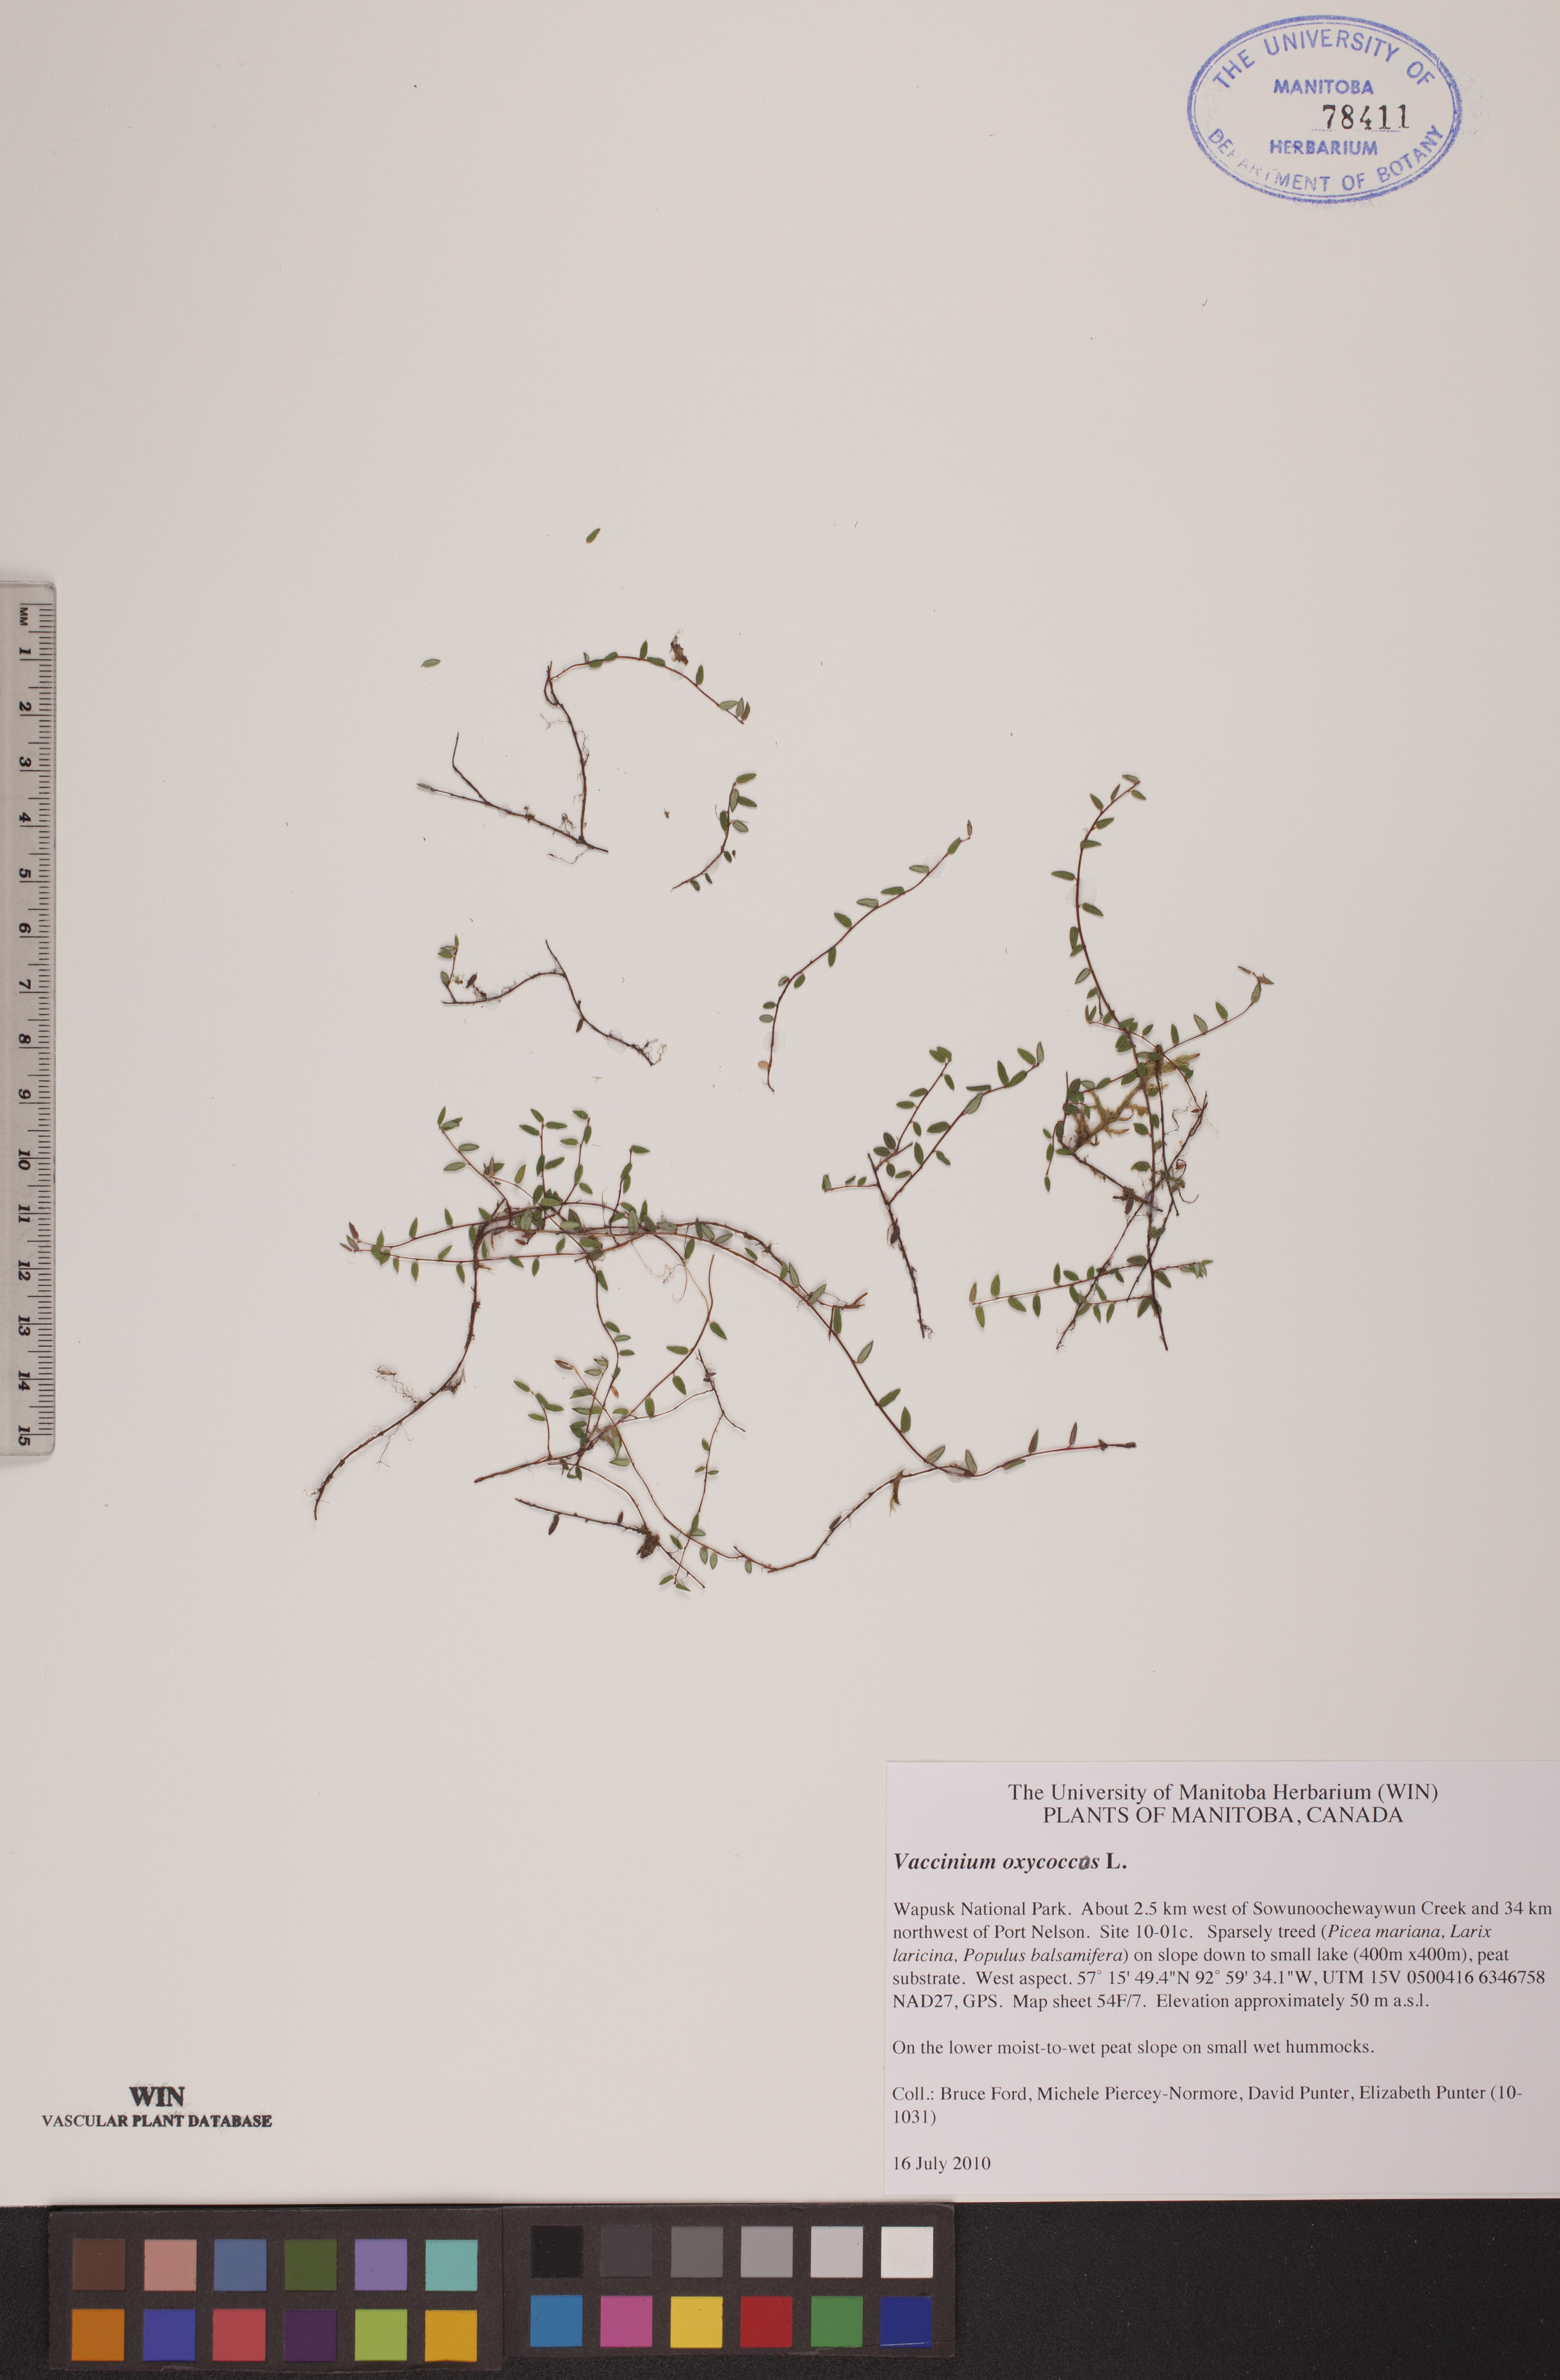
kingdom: Plantae
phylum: Tracheophyta
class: Magnoliopsida
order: Ericales
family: Ericaceae
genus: Vaccinium
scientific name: Vaccinium oxycoccos
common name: Cranberry
